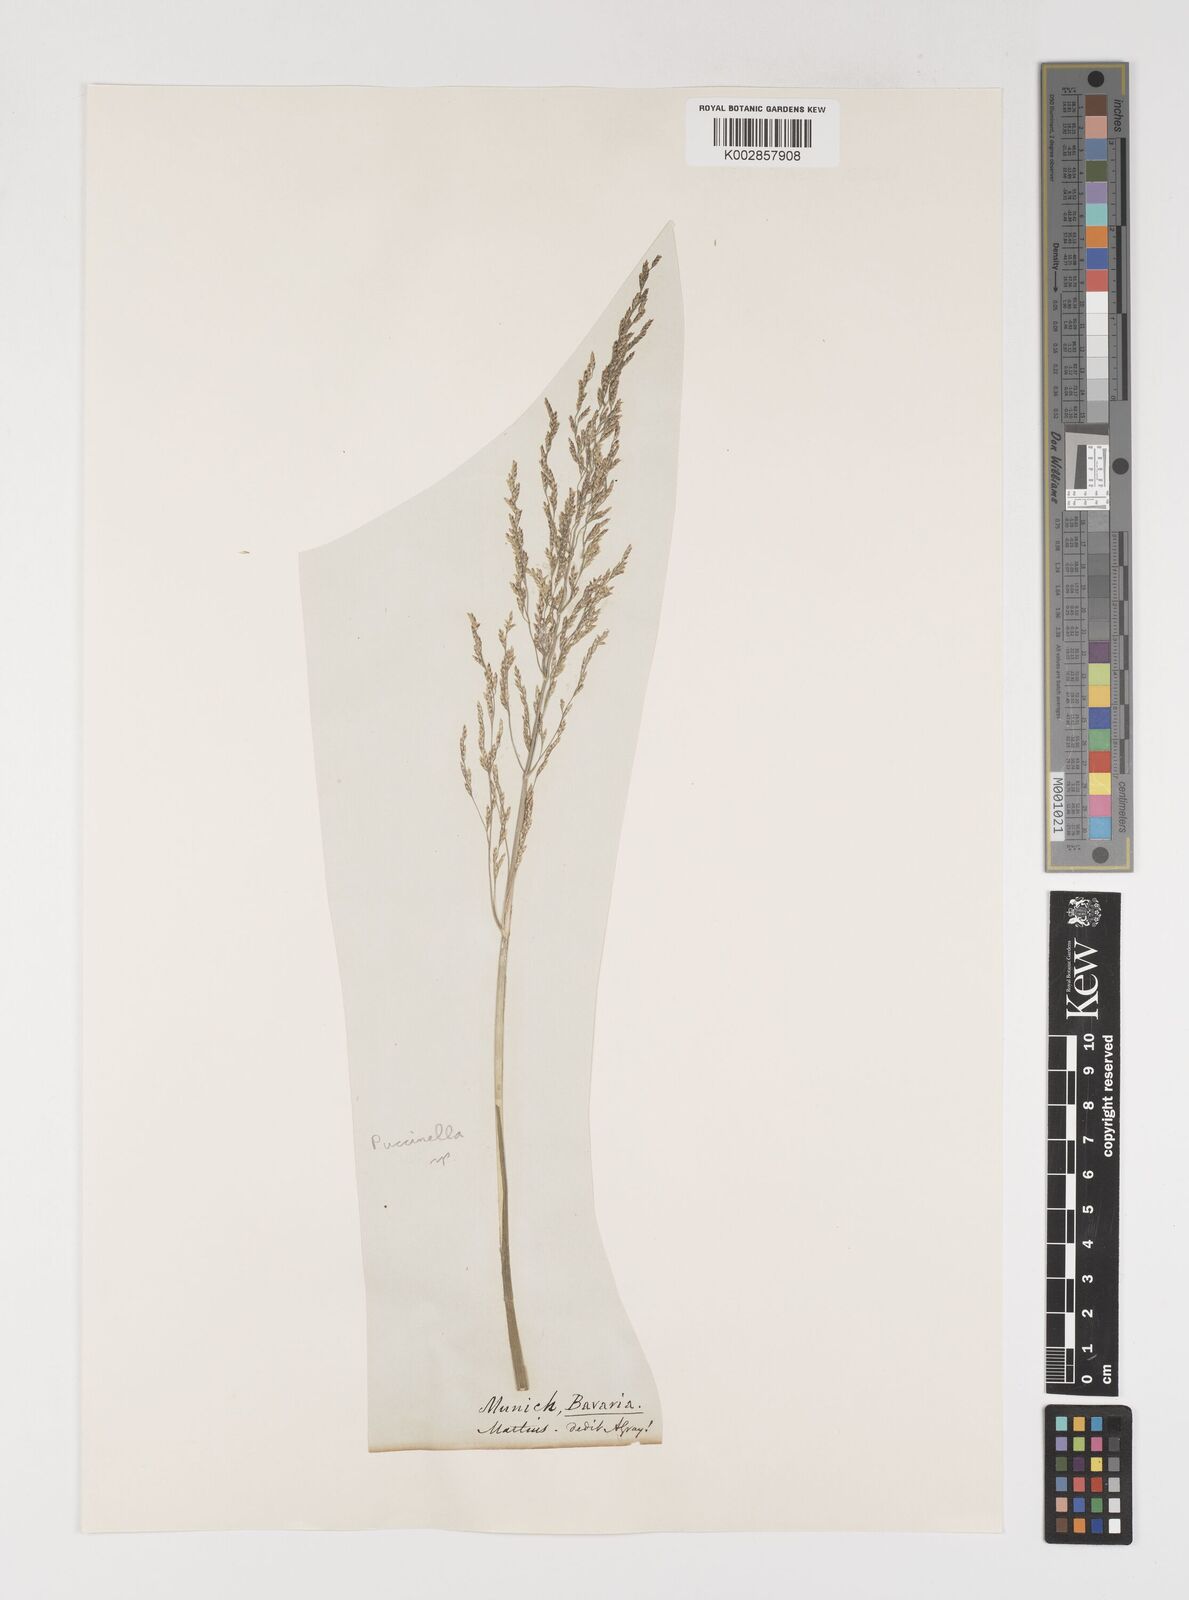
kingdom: Plantae
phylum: Tracheophyta
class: Liliopsida
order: Poales
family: Poaceae
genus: Puccinellia
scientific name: Puccinellia
